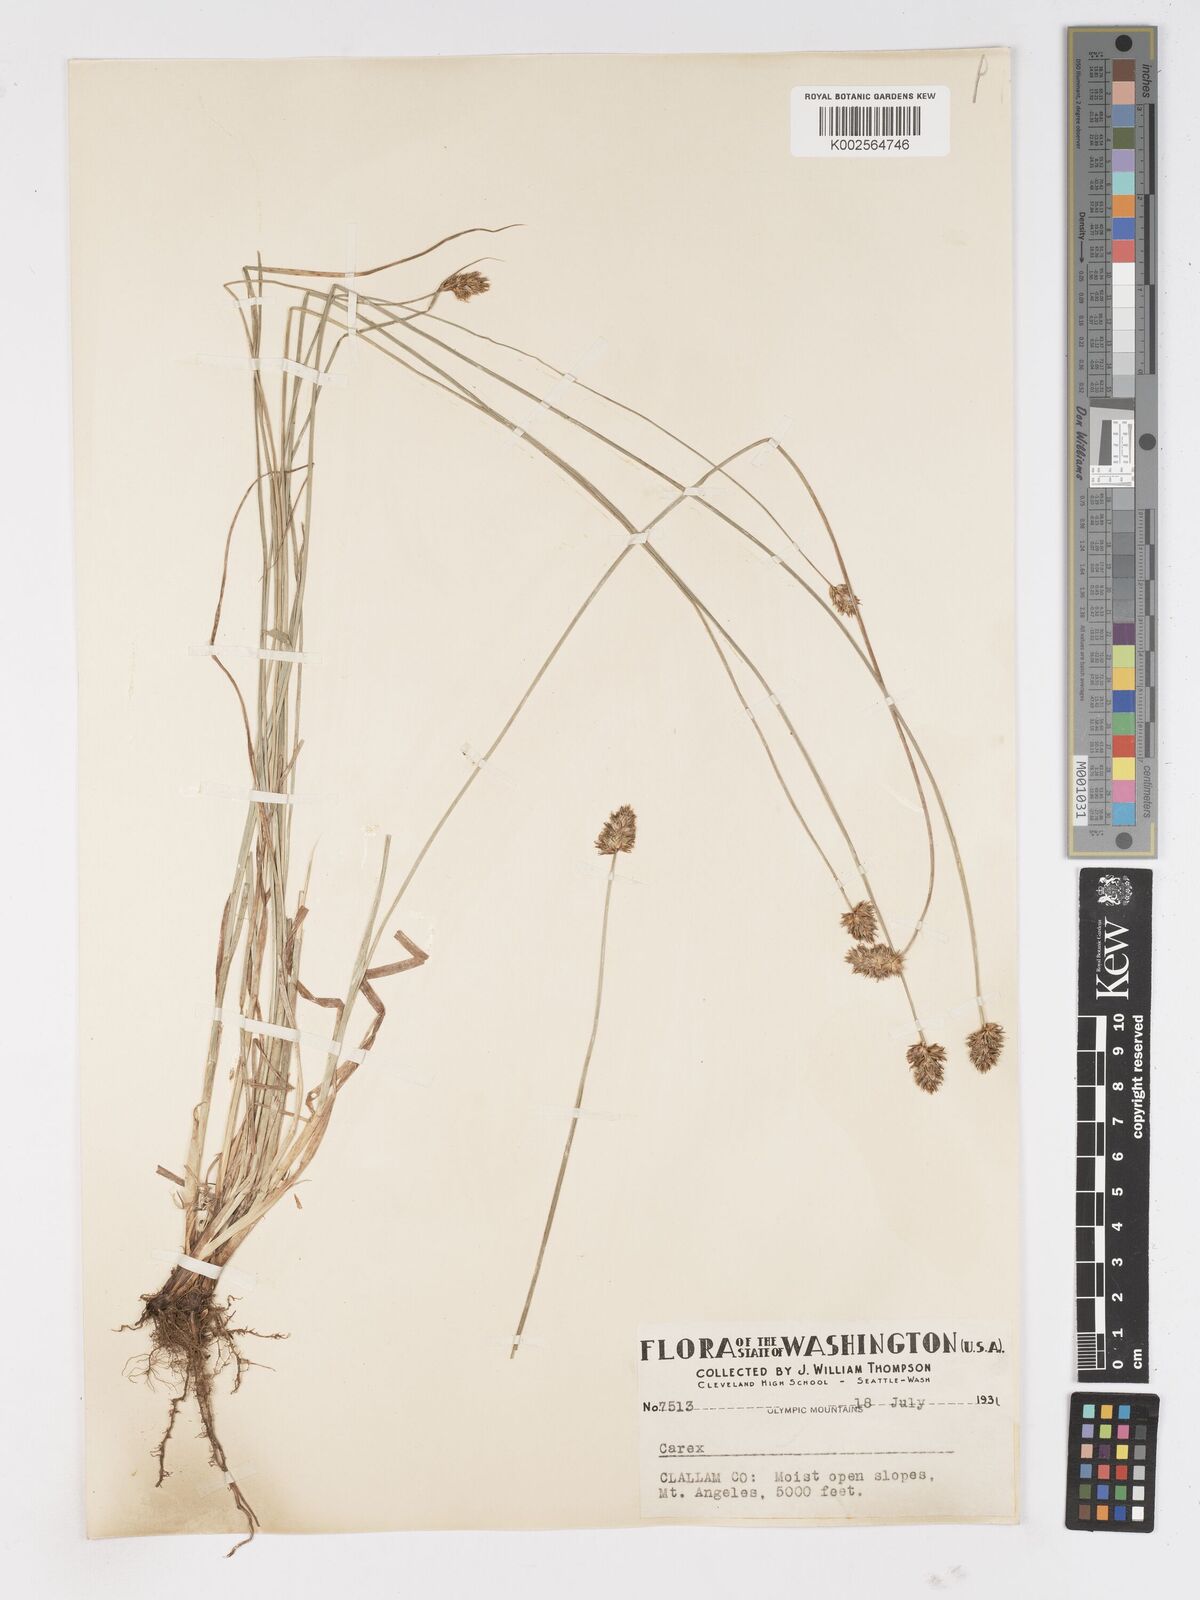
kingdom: Plantae
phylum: Tracheophyta
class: Liliopsida
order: Poales
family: Cyperaceae
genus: Carex
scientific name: Carex
